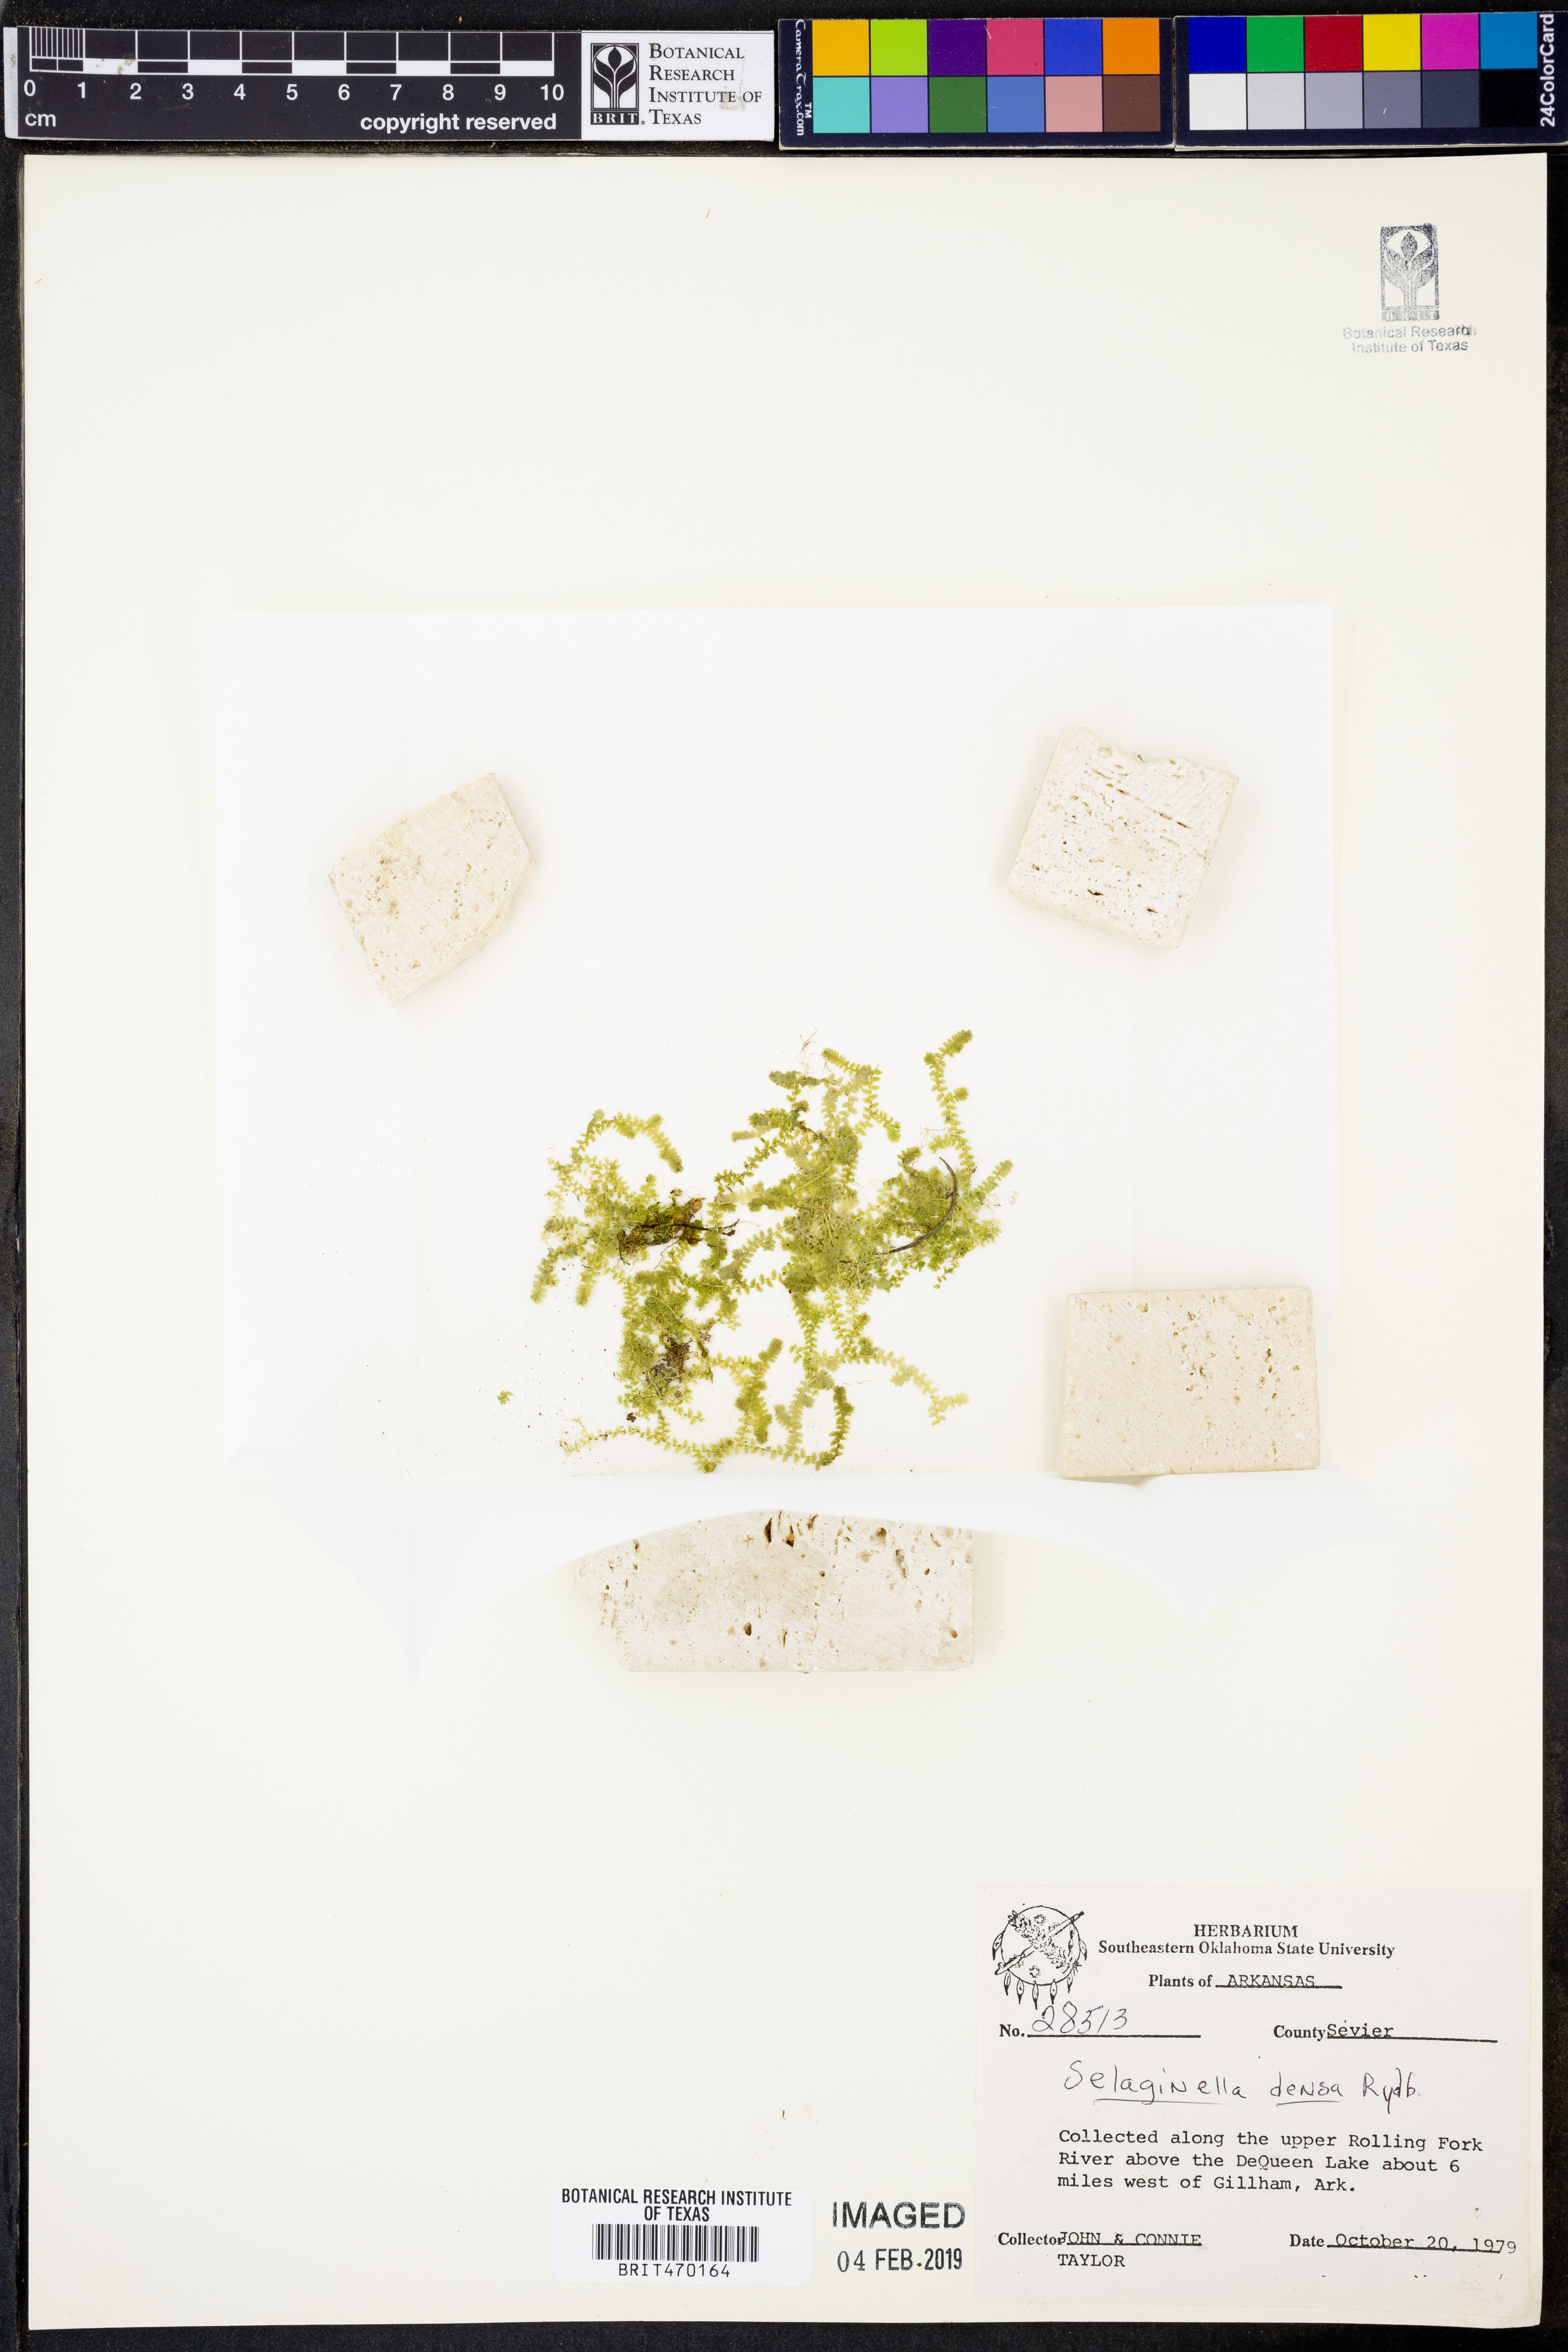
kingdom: Plantae
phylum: Tracheophyta
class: Lycopodiopsida
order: Selaginellales
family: Selaginellaceae
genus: Selaginella
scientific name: Selaginella densa
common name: Mountain spike-moss
